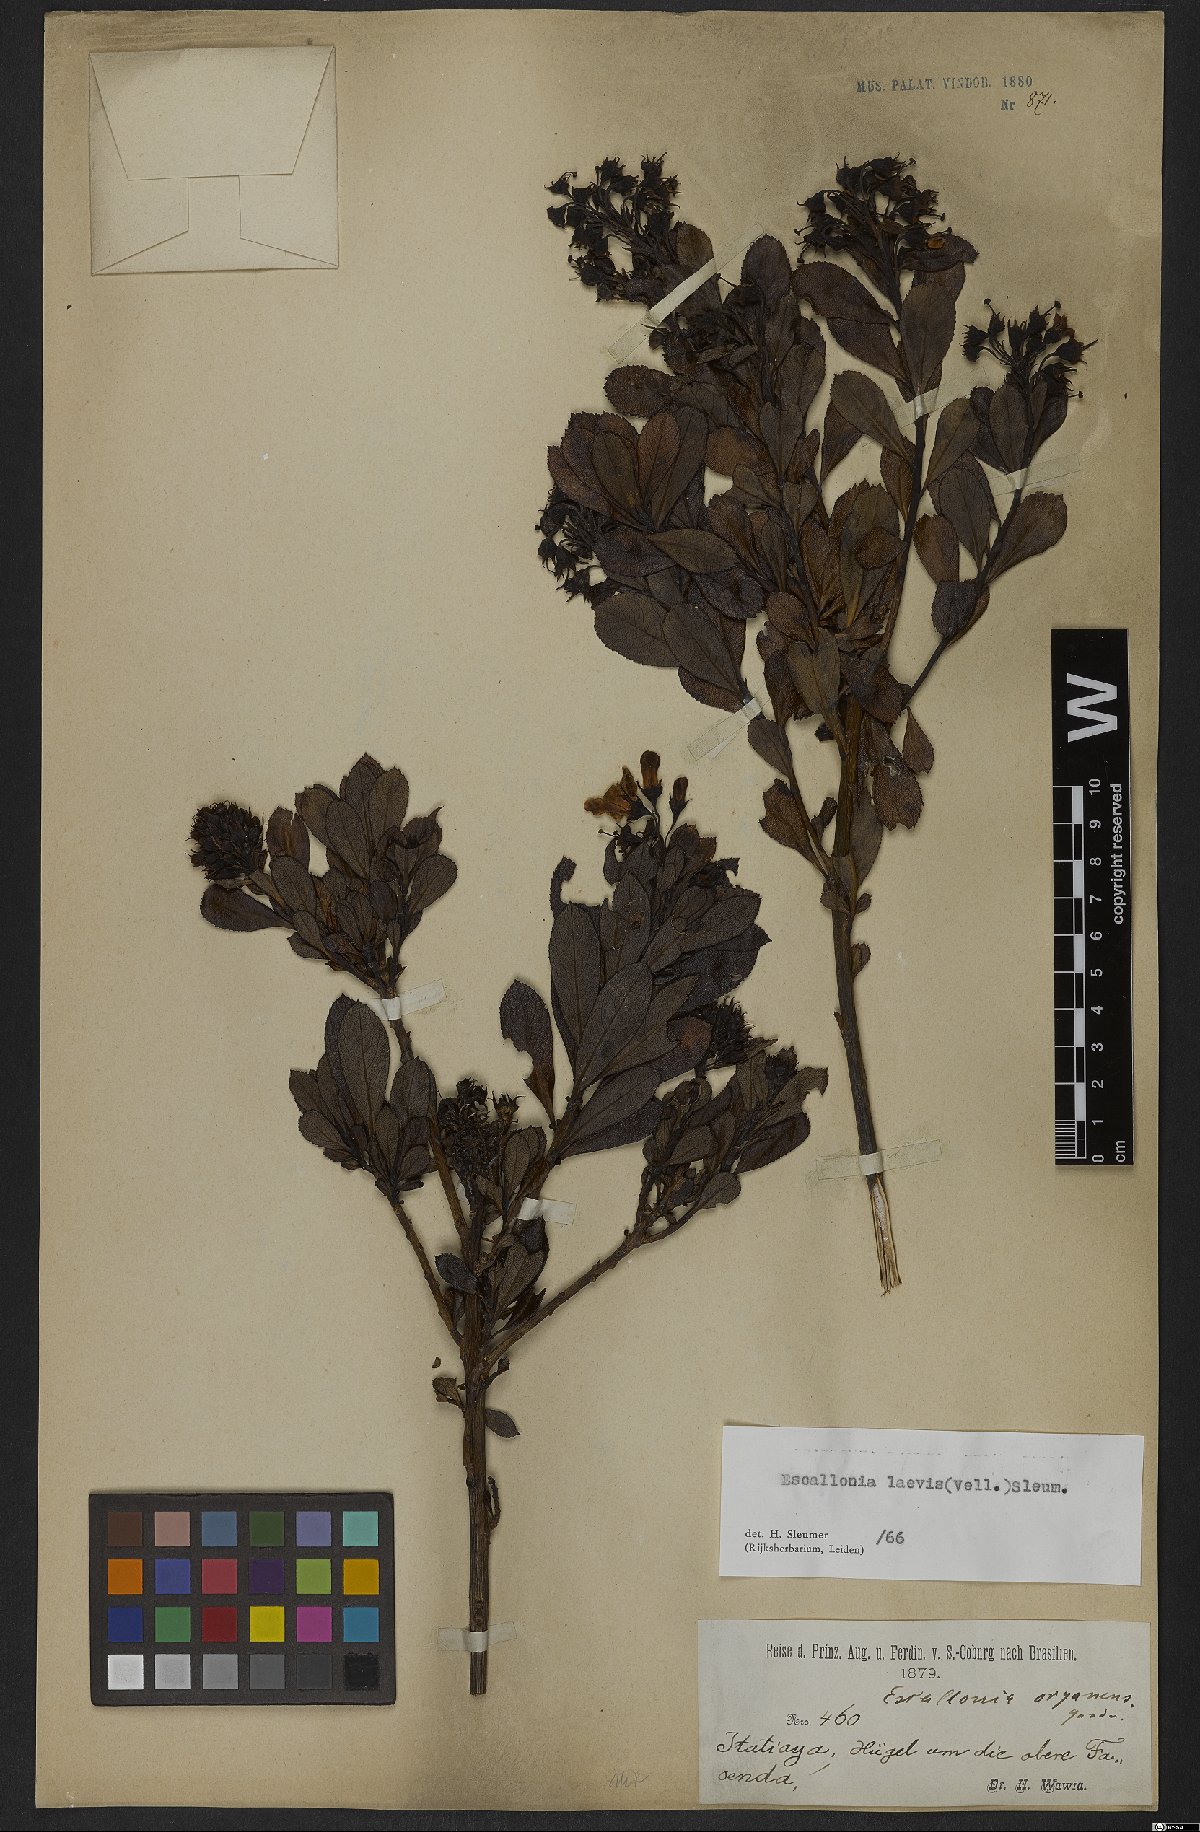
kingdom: Plantae
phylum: Tracheophyta
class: Magnoliopsida
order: Escalloniales
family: Escalloniaceae
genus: Escallonia
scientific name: Escallonia laevis
